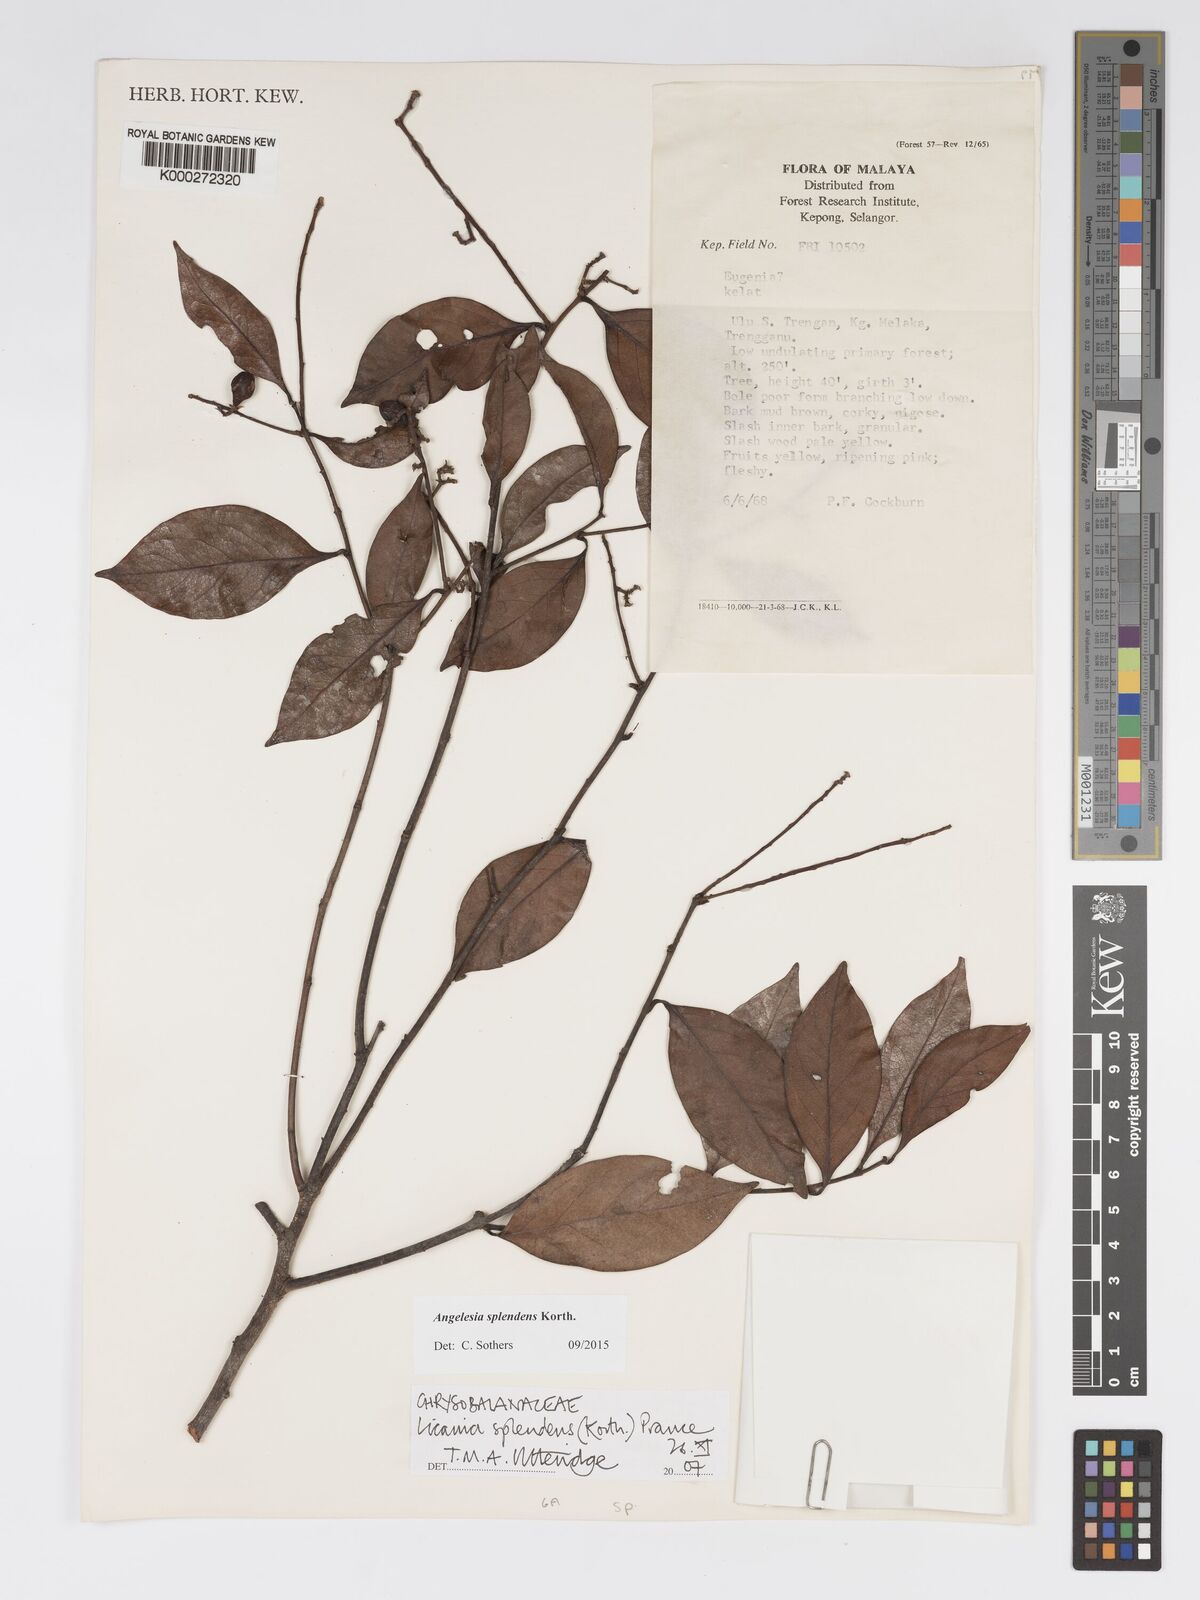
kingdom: Plantae
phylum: Tracheophyta
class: Magnoliopsida
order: Malpighiales
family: Chrysobalanaceae
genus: Angelesia
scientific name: Angelesia splendens
